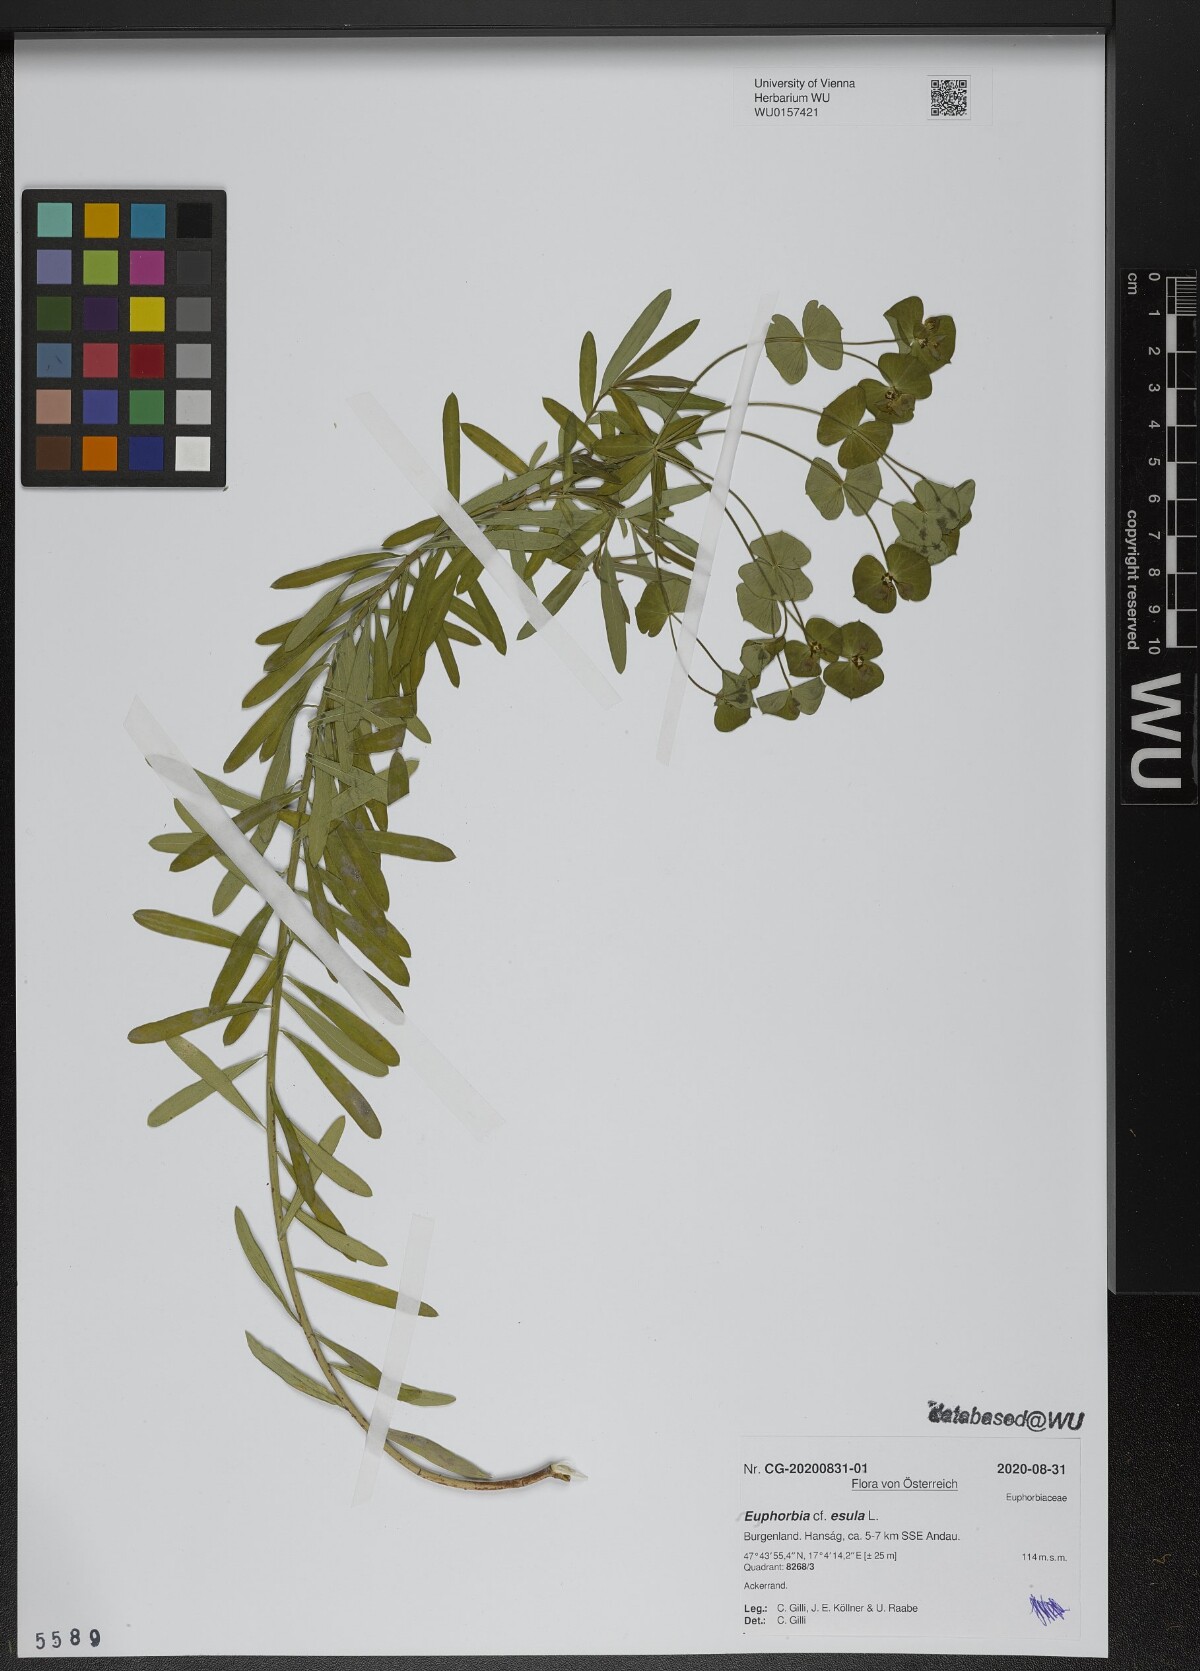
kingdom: Plantae
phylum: Tracheophyta
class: Magnoliopsida
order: Malpighiales
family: Euphorbiaceae
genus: Euphorbia
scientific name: Euphorbia esula
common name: Leafy spurge
